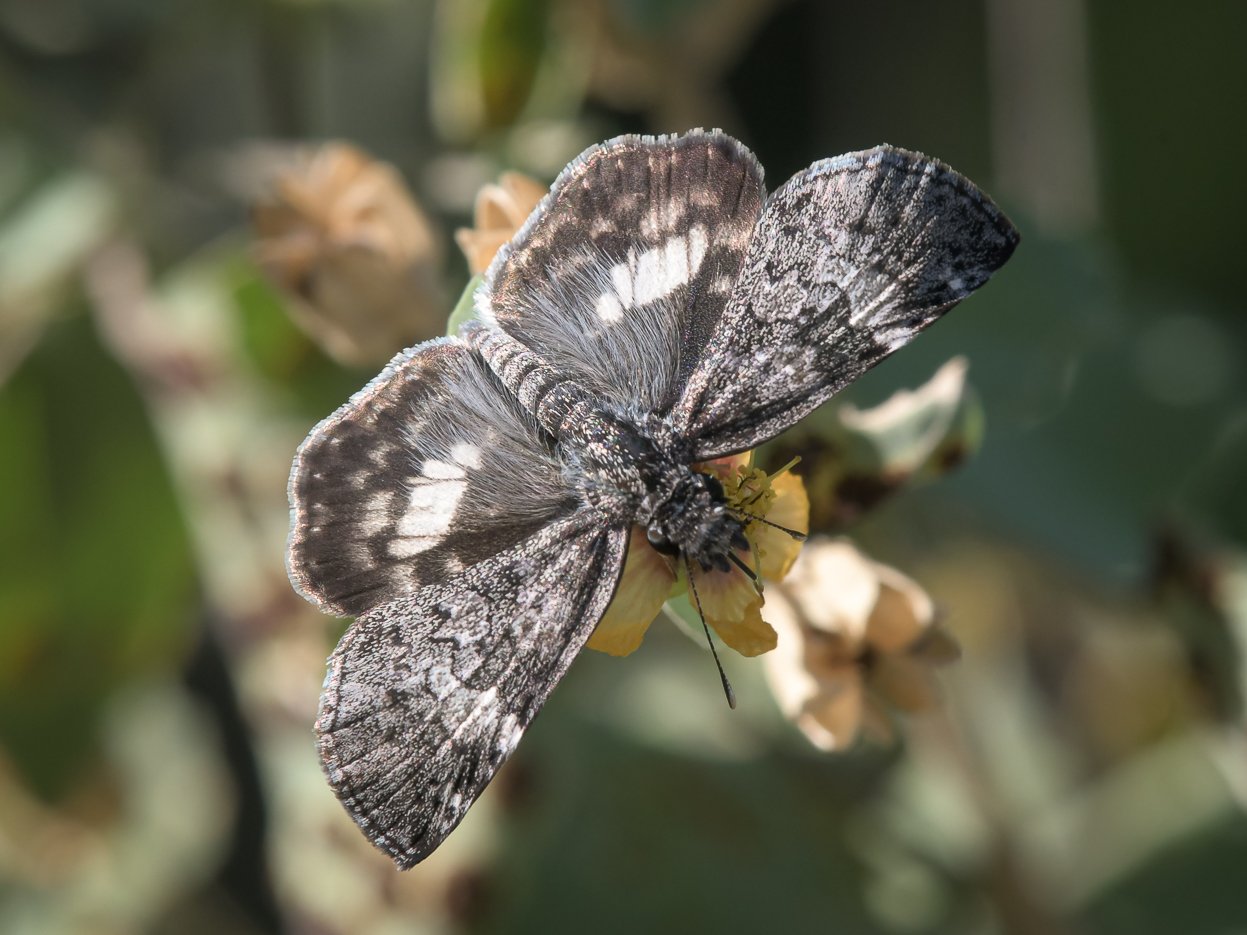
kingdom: Animalia
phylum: Arthropoda
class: Insecta
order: Lepidoptera
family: Hesperiidae
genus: Chiomara
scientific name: Chiomara asychis
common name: White-patched Skipper
